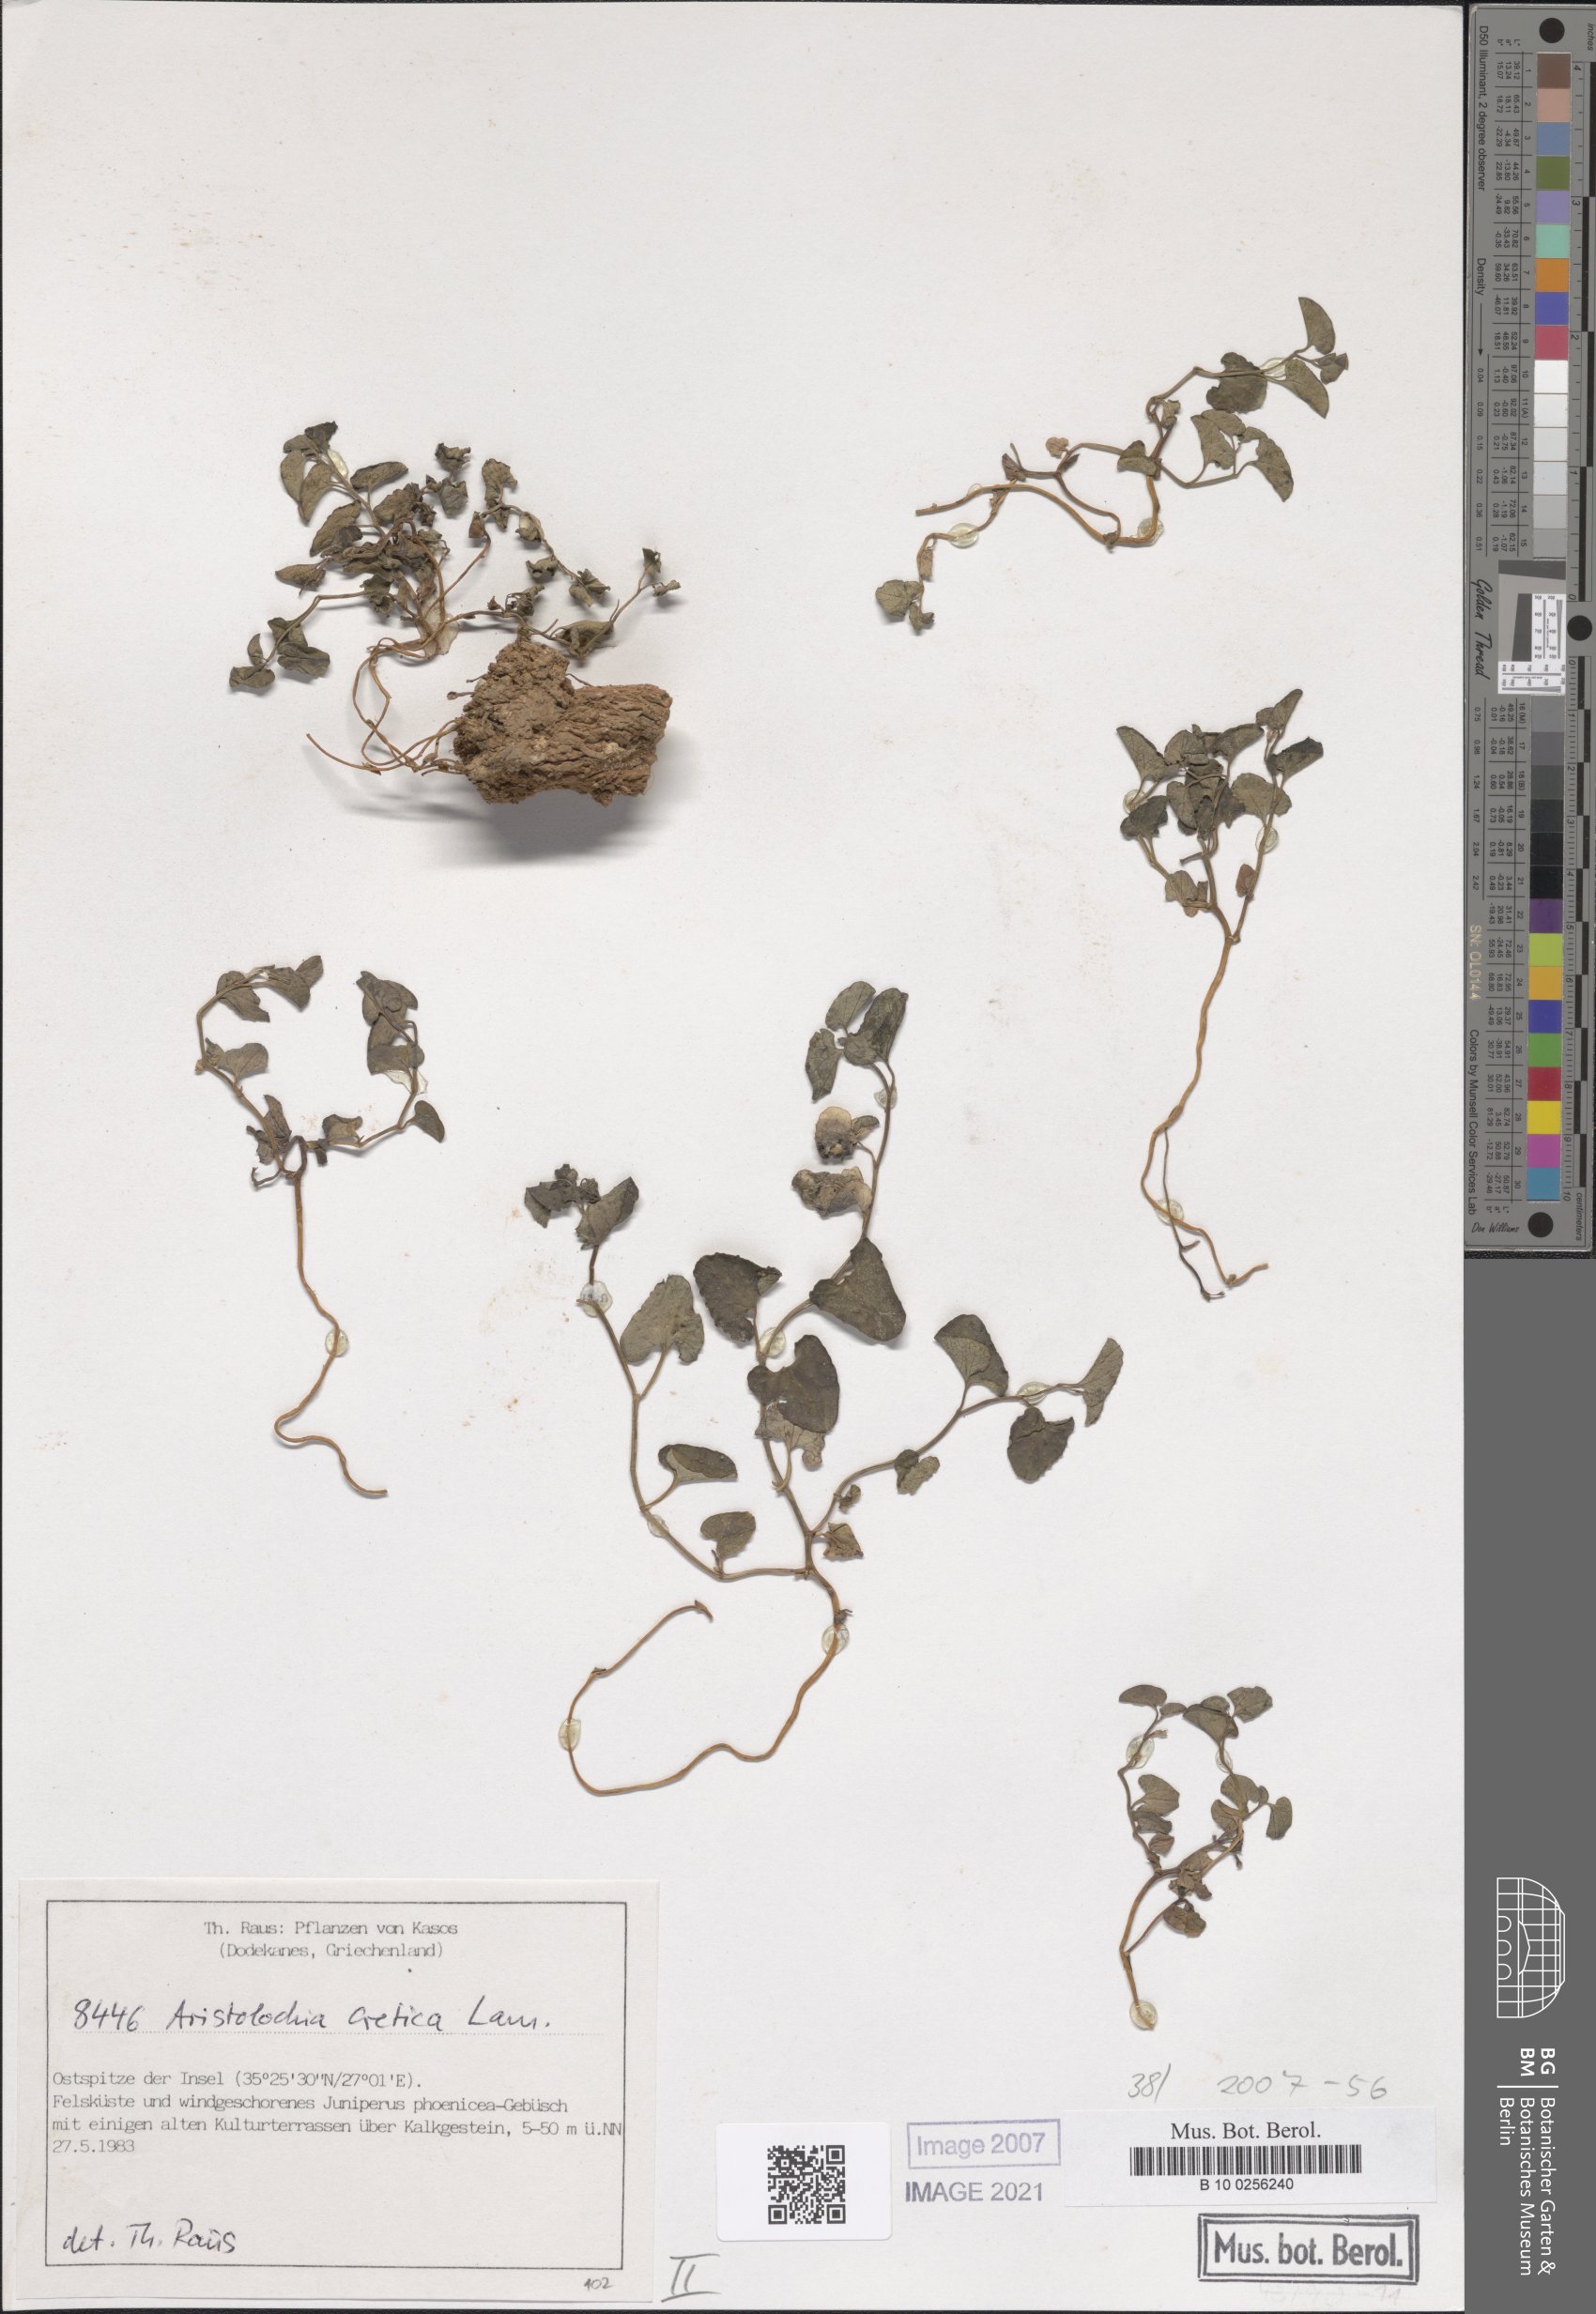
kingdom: Plantae
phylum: Tracheophyta
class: Magnoliopsida
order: Piperales
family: Aristolochiaceae
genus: Aristolochia
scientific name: Aristolochia cretica
